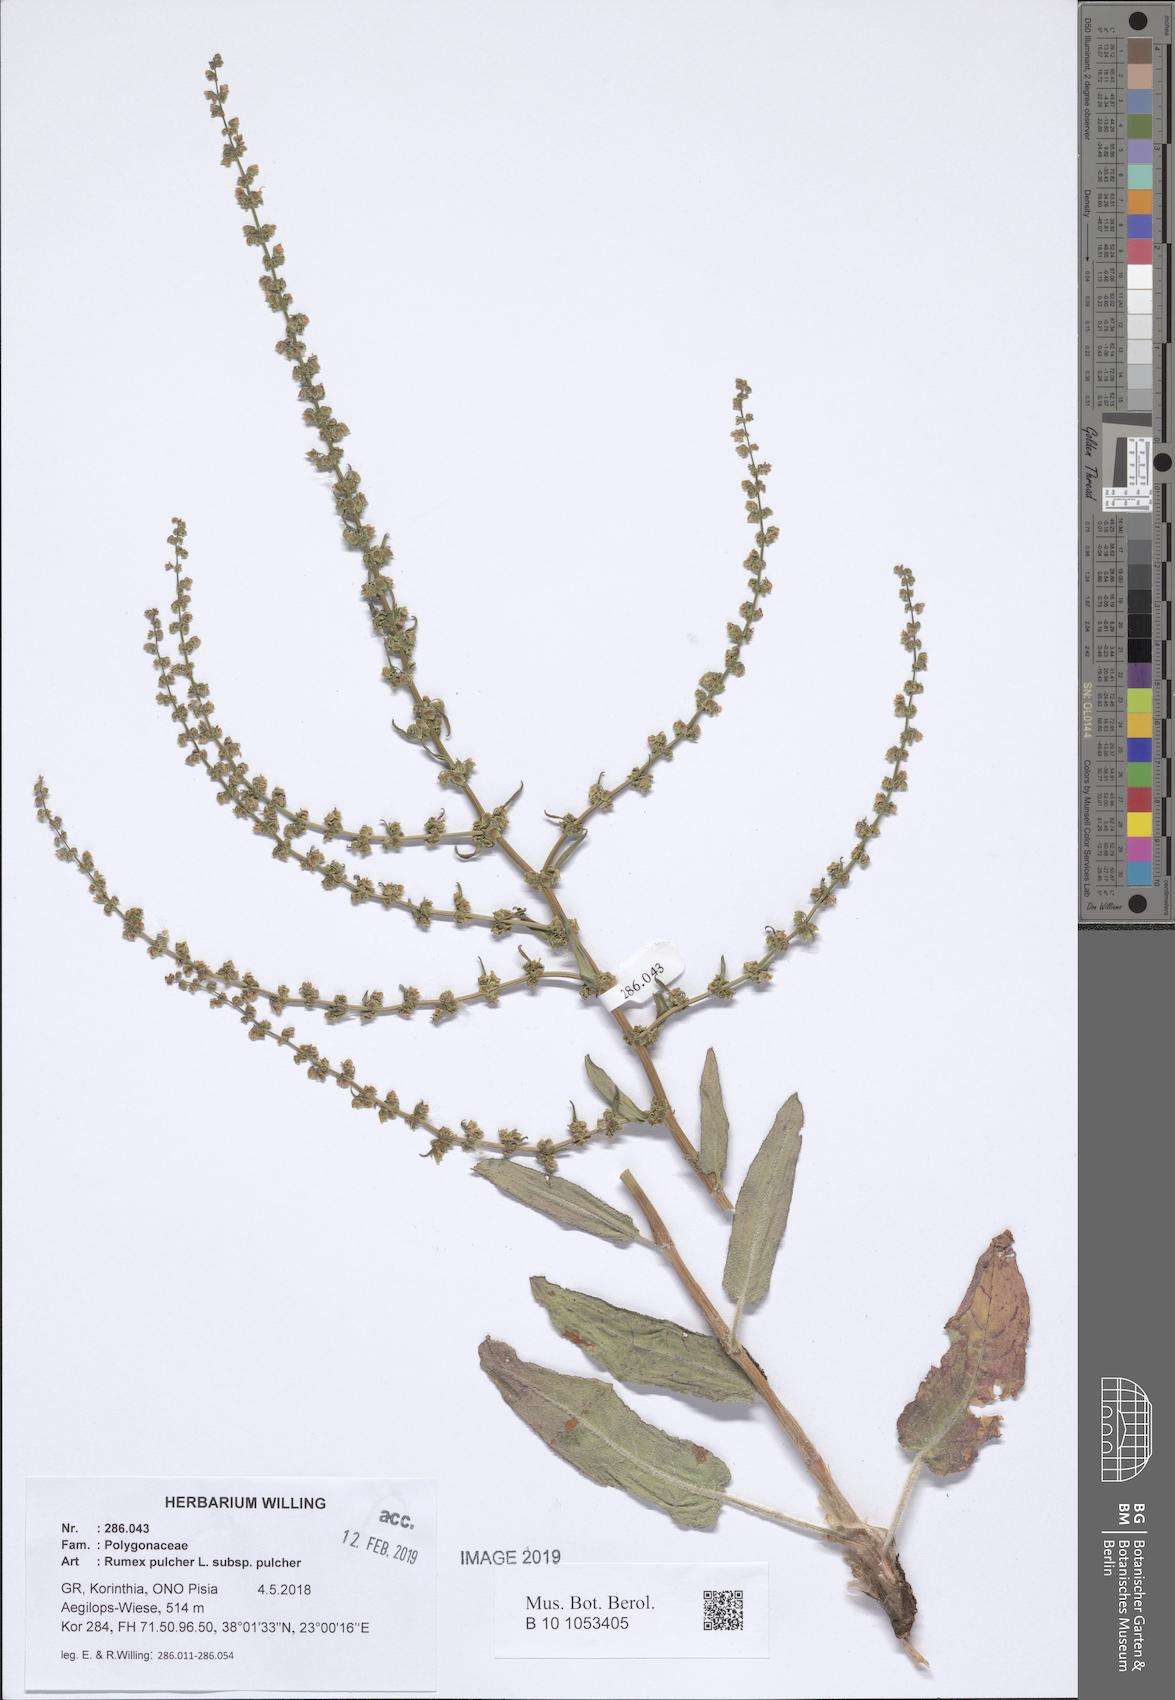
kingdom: Plantae
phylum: Tracheophyta
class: Magnoliopsida
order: Caryophyllales
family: Polygonaceae
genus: Rumex
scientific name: Rumex pulcher
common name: Fiddle dock
